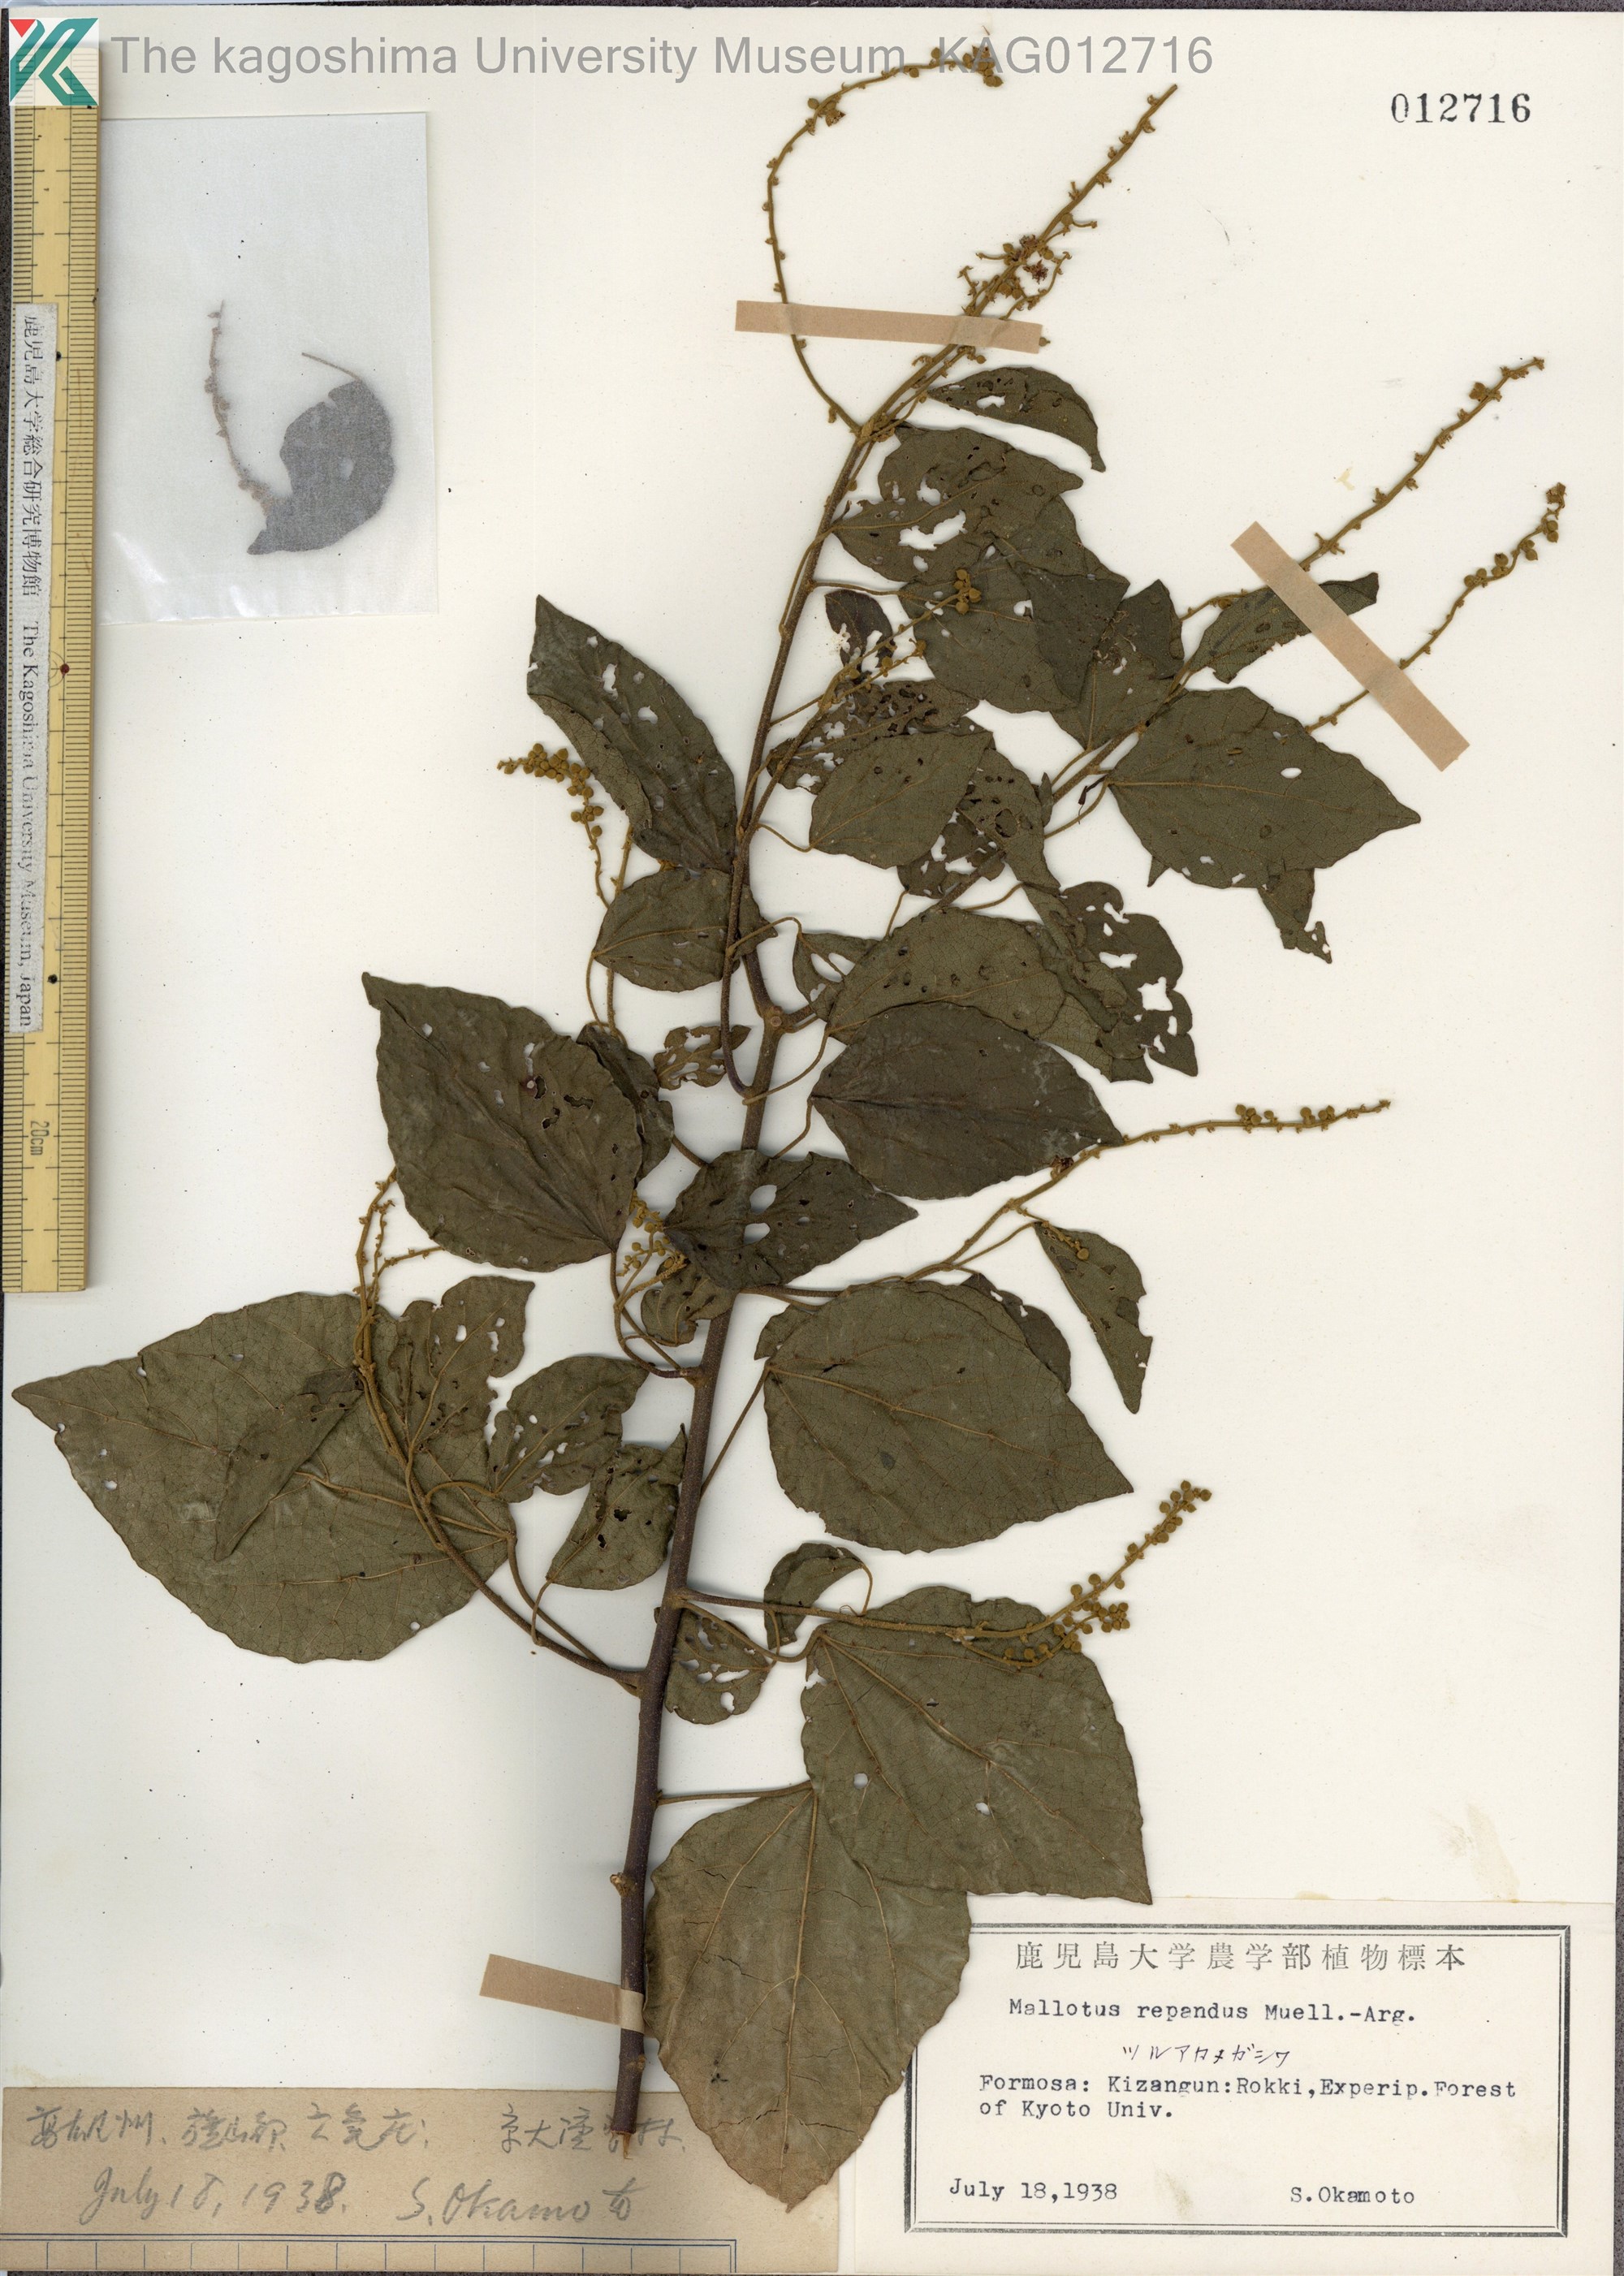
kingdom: Plantae
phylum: Tracheophyta
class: Magnoliopsida
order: Malpighiales
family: Euphorbiaceae
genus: Mallotus
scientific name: Mallotus repandus
